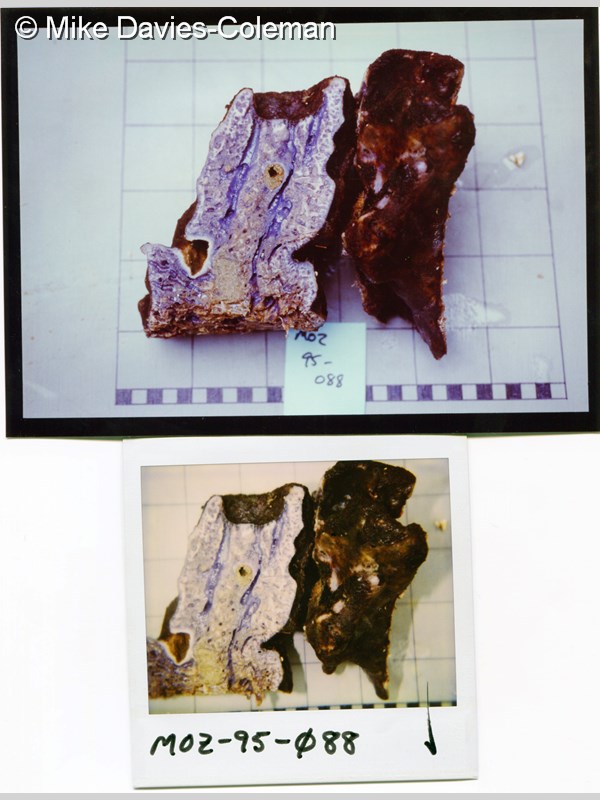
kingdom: Animalia
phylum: Porifera
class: Demospongiae
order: Dictyoceratida
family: Spongiidae
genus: Spongia
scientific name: Spongia
